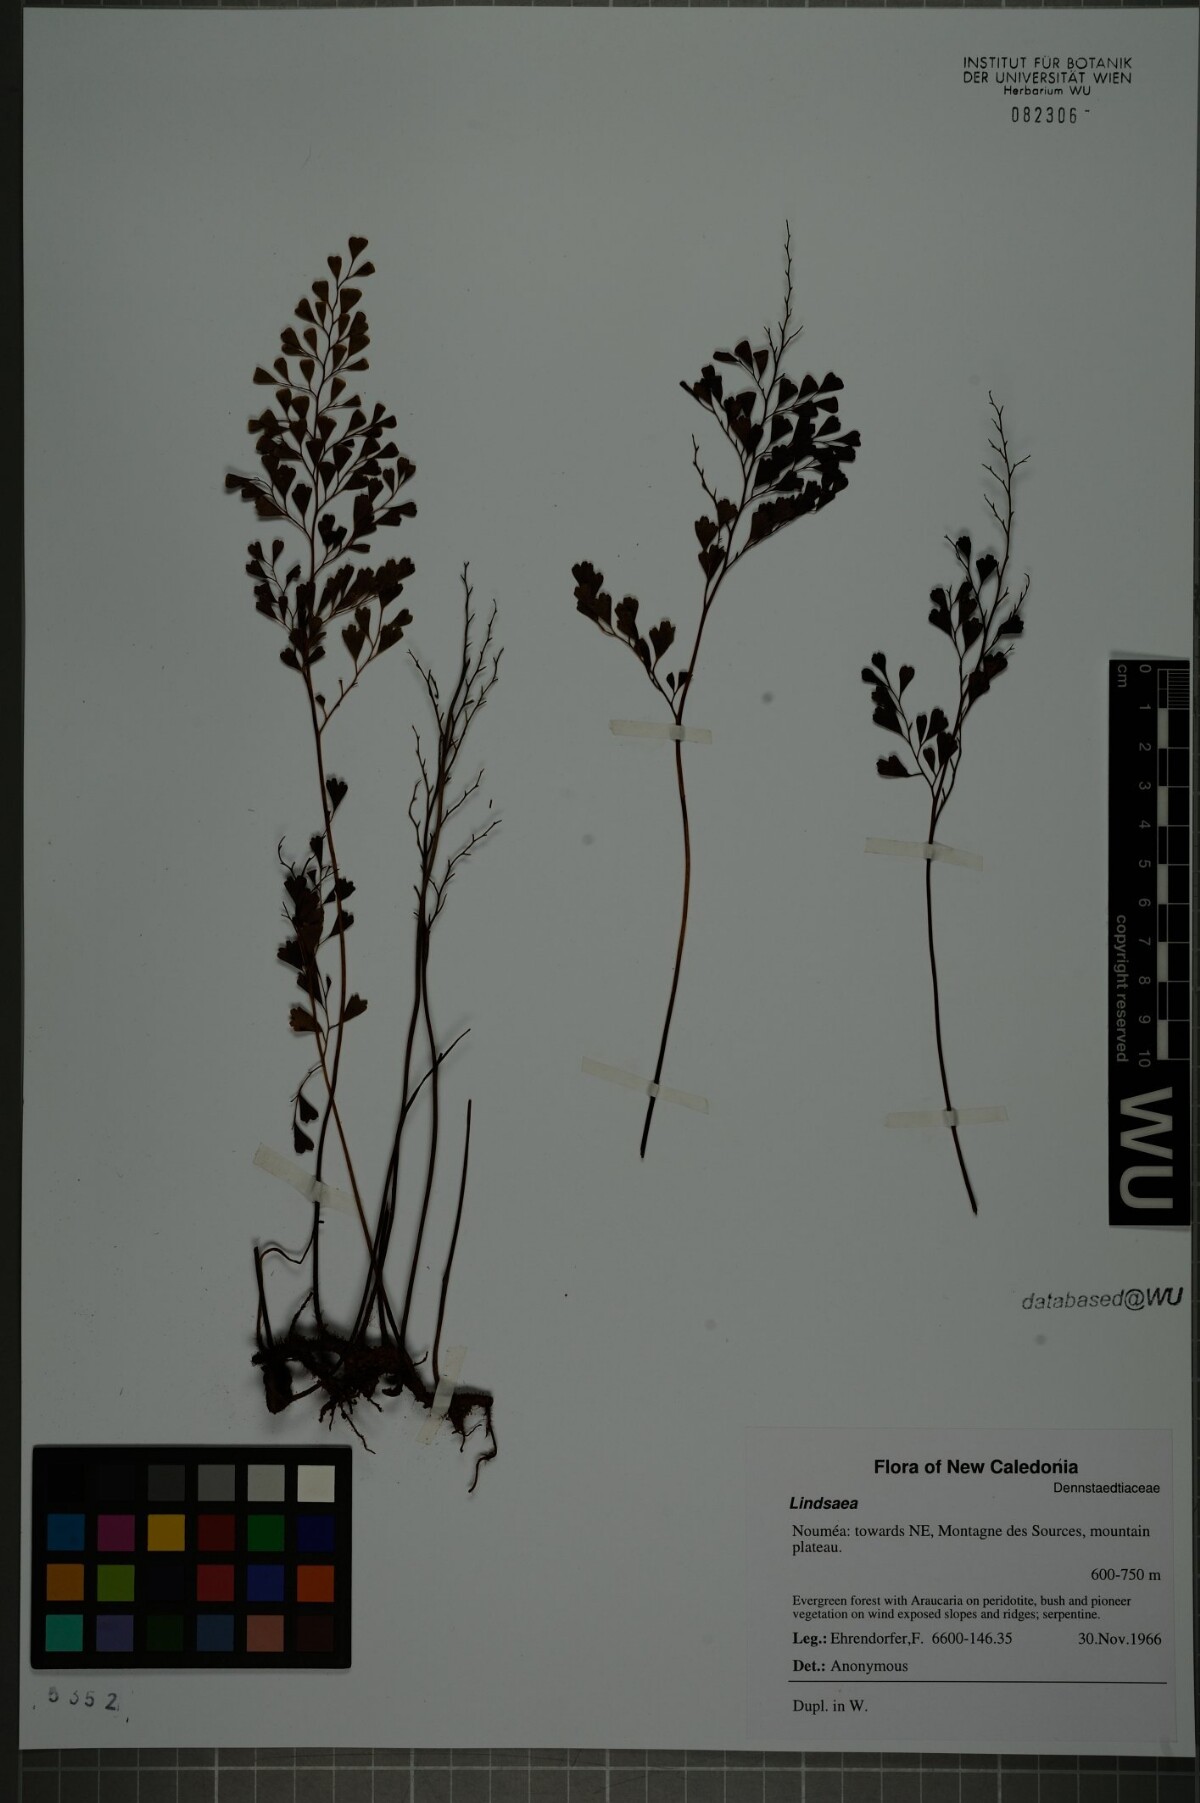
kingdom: Plantae
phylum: Tracheophyta
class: Polypodiopsida
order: Polypodiales
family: Lindsaeaceae
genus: Lindsaea
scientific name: Lindsaea
